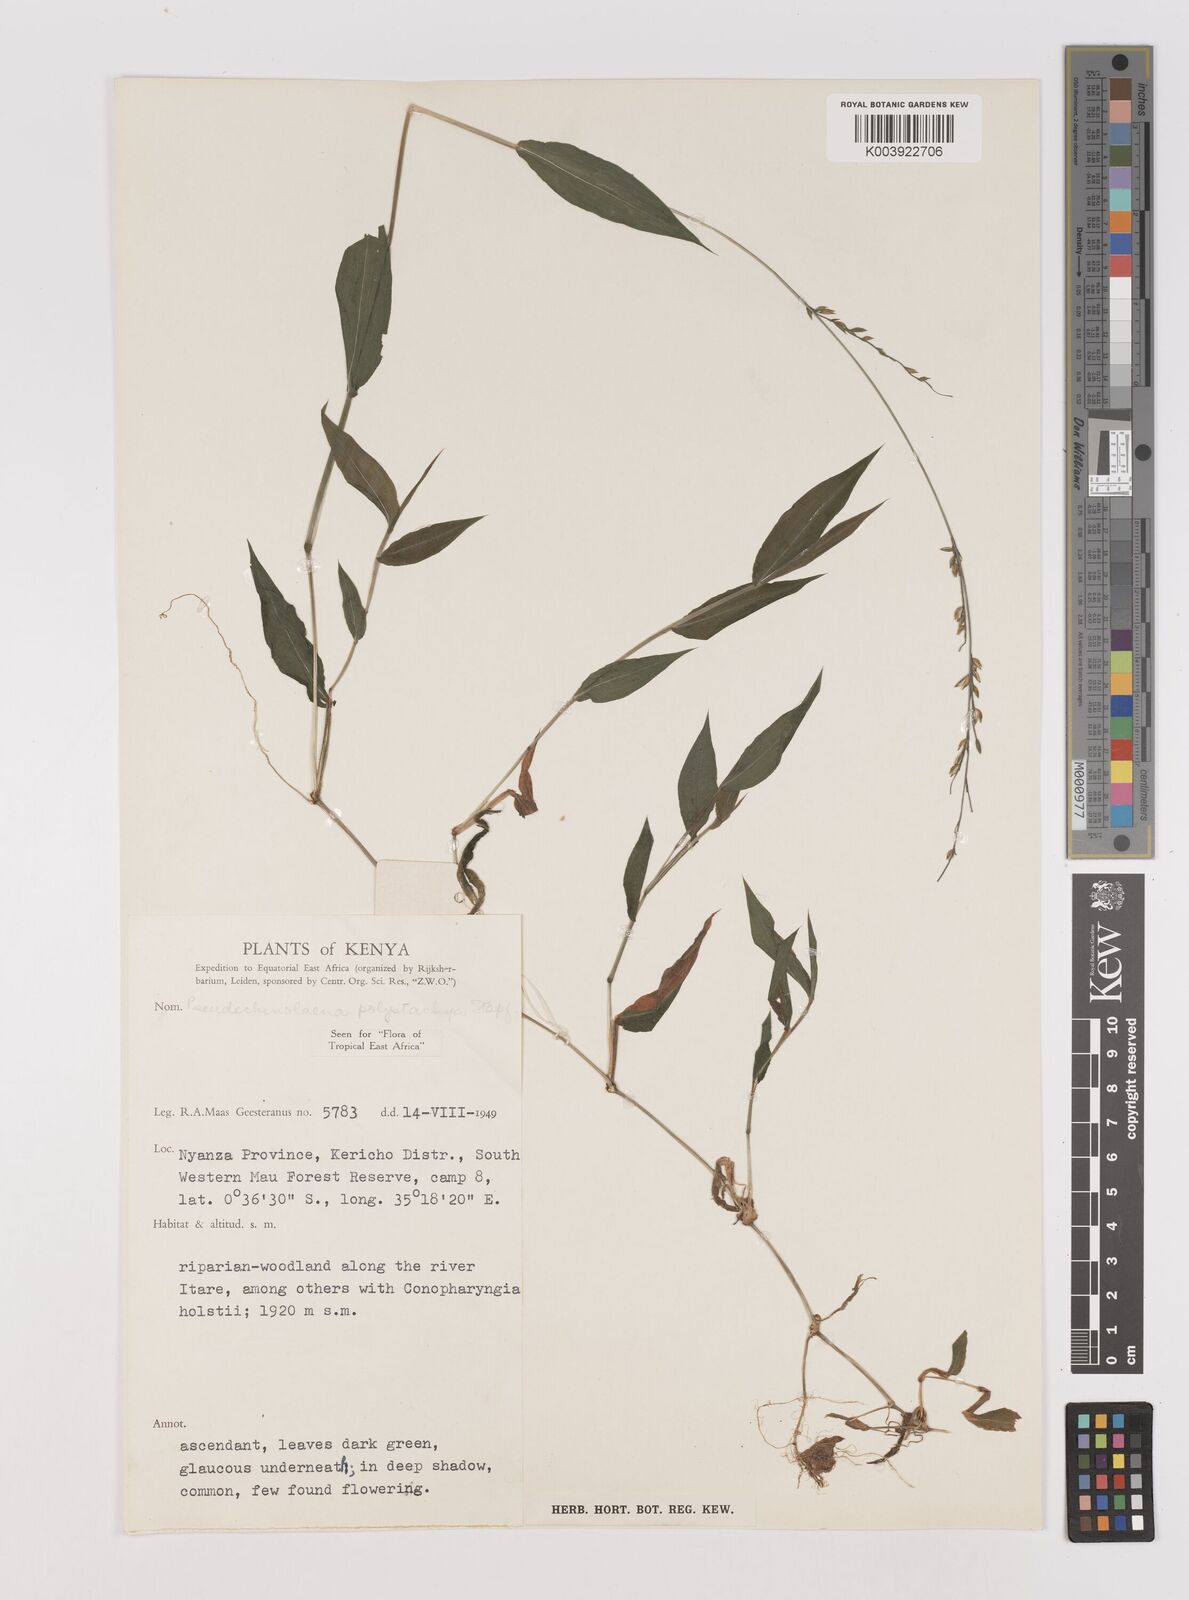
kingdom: Plantae
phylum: Tracheophyta
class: Liliopsida
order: Poales
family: Poaceae
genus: Pseudechinolaena
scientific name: Pseudechinolaena polystachya
